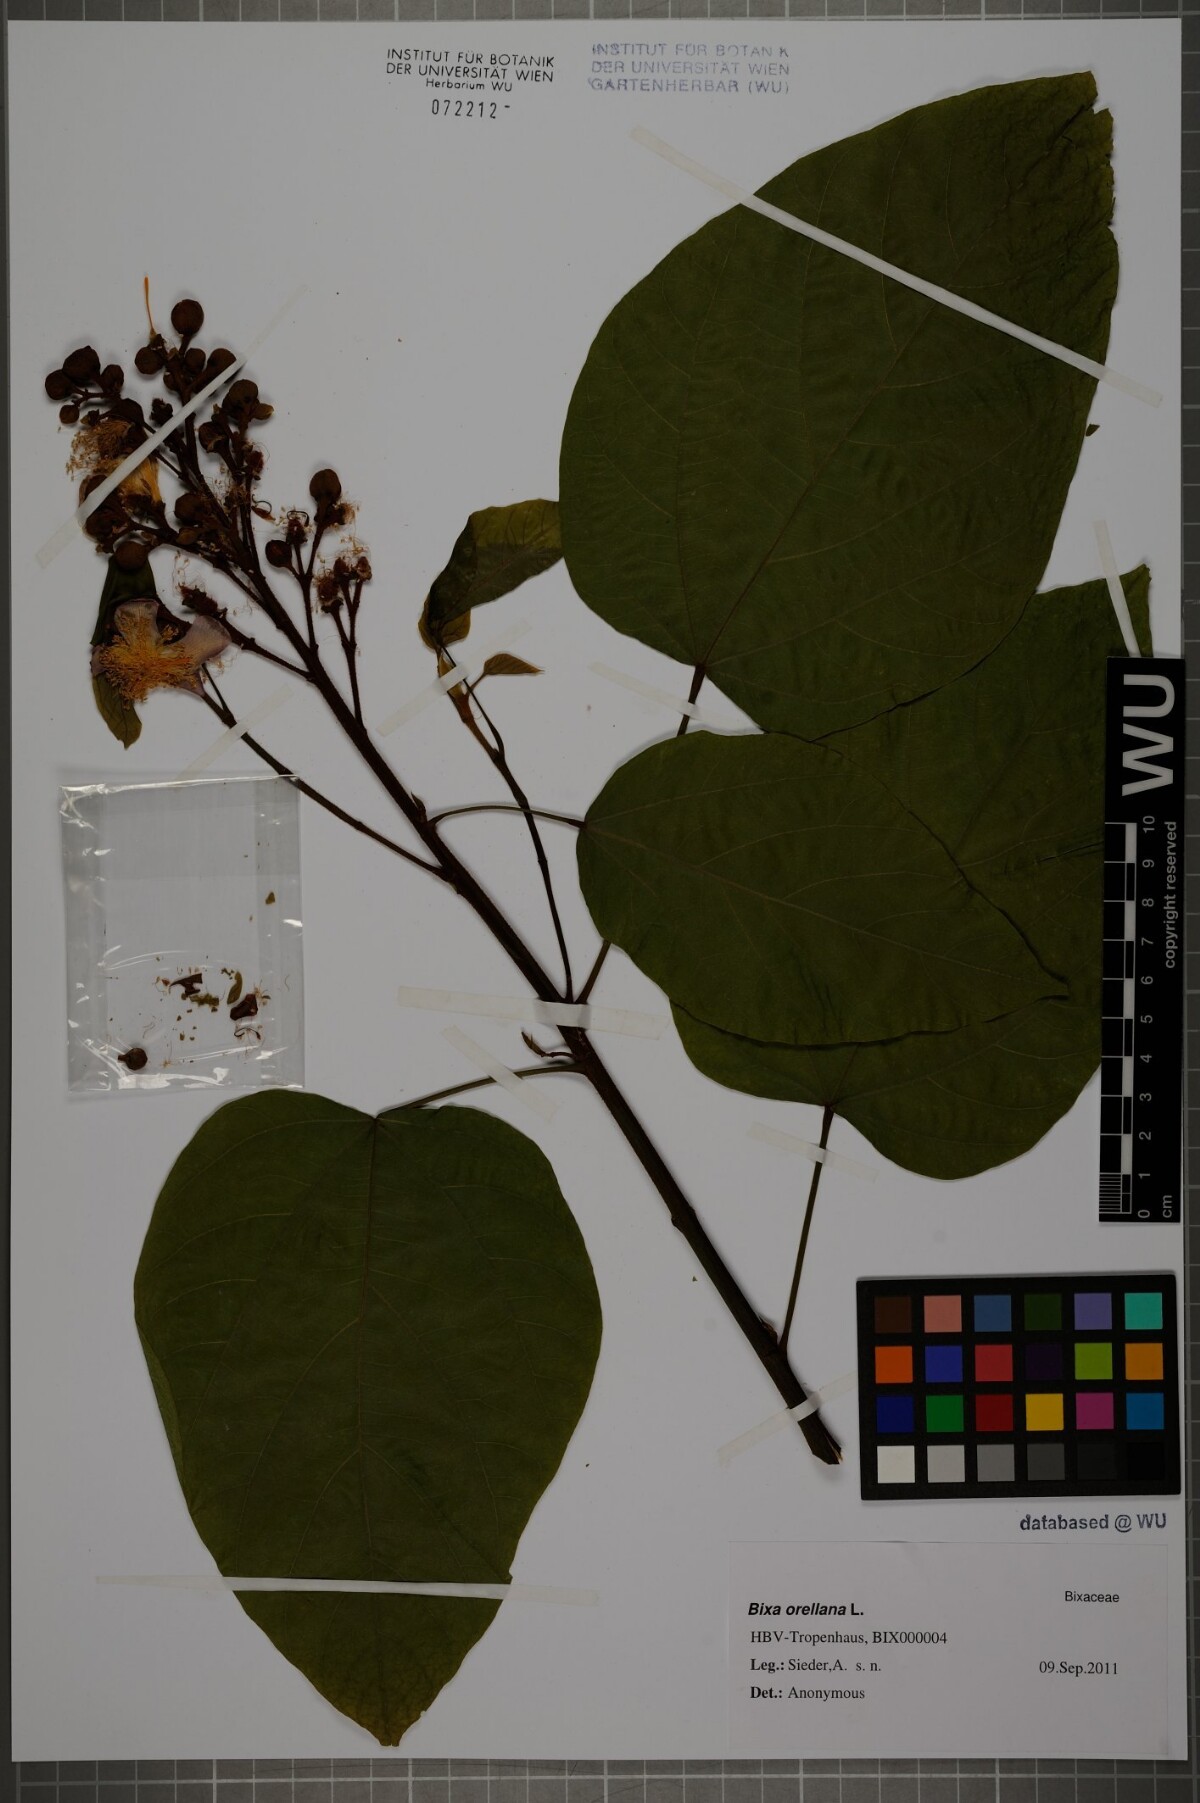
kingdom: Plantae
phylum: Tracheophyta
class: Magnoliopsida
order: Malvales
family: Bixaceae
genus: Bixa
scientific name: Bixa orellana
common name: Lipsticktree
